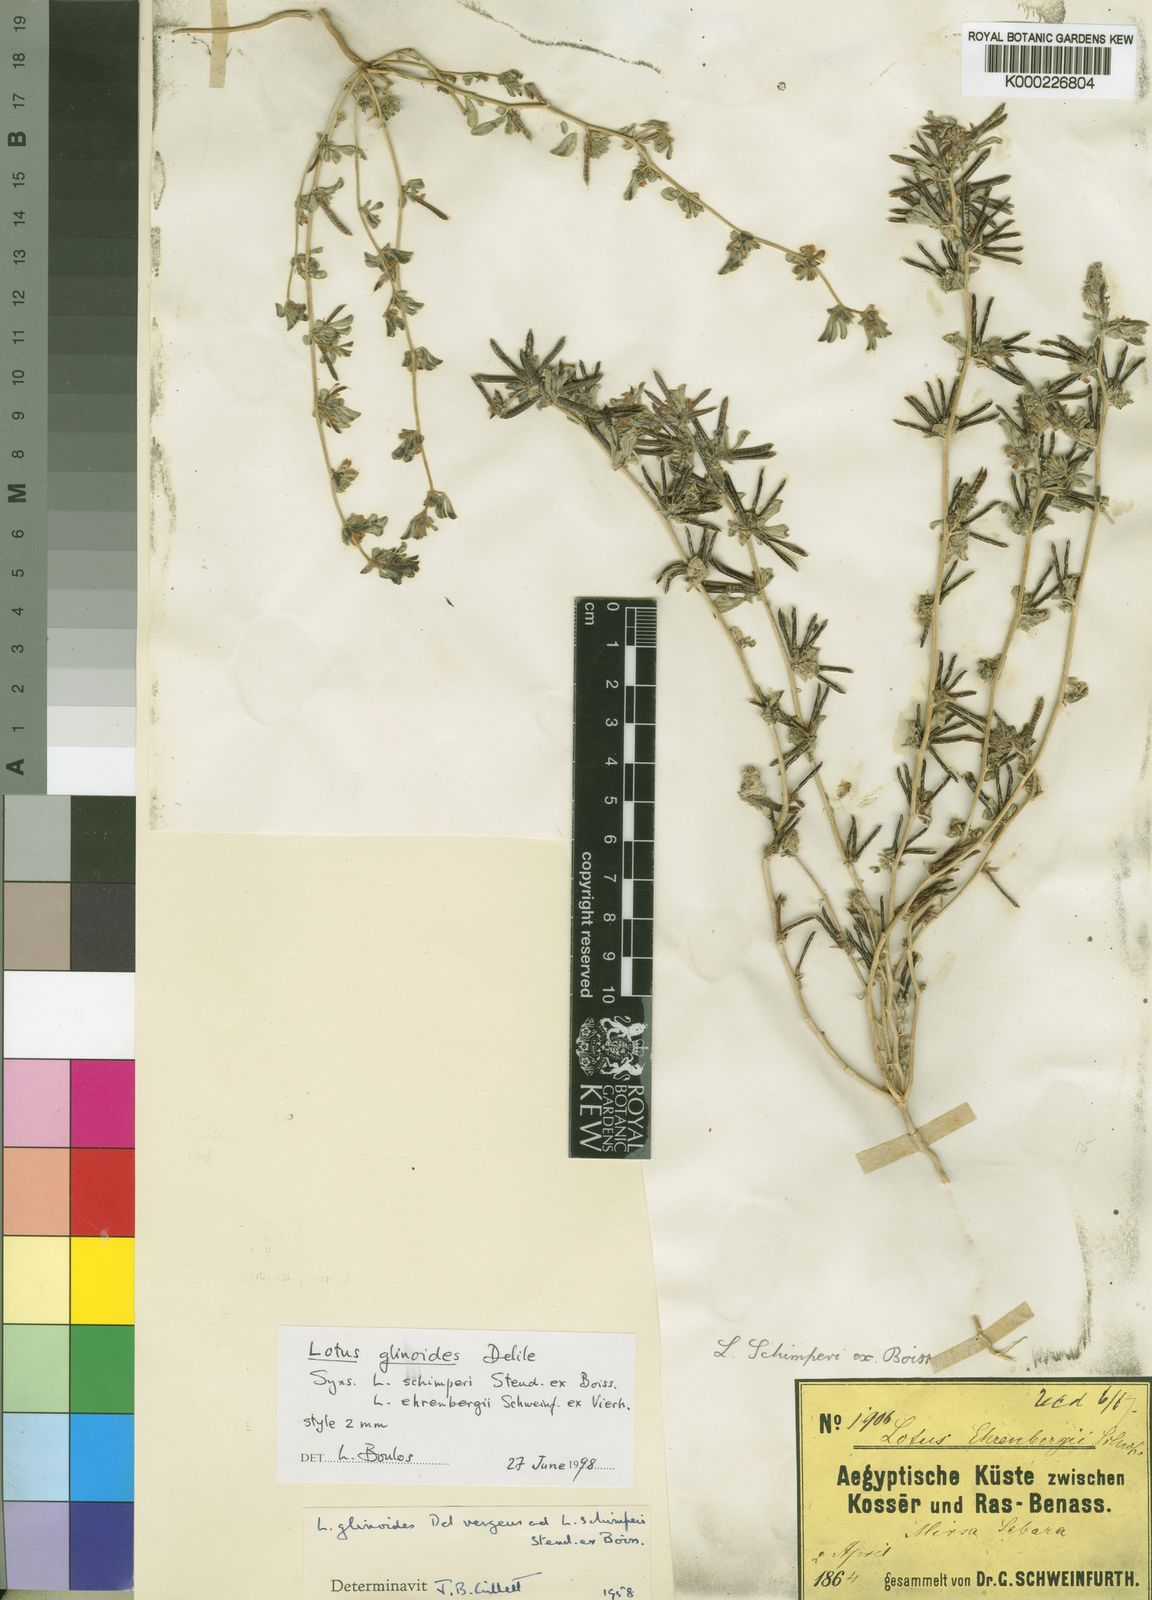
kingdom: Plantae
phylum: Tracheophyta
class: Magnoliopsida
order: Fabales
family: Fabaceae
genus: Lotus
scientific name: Lotus glinoides
